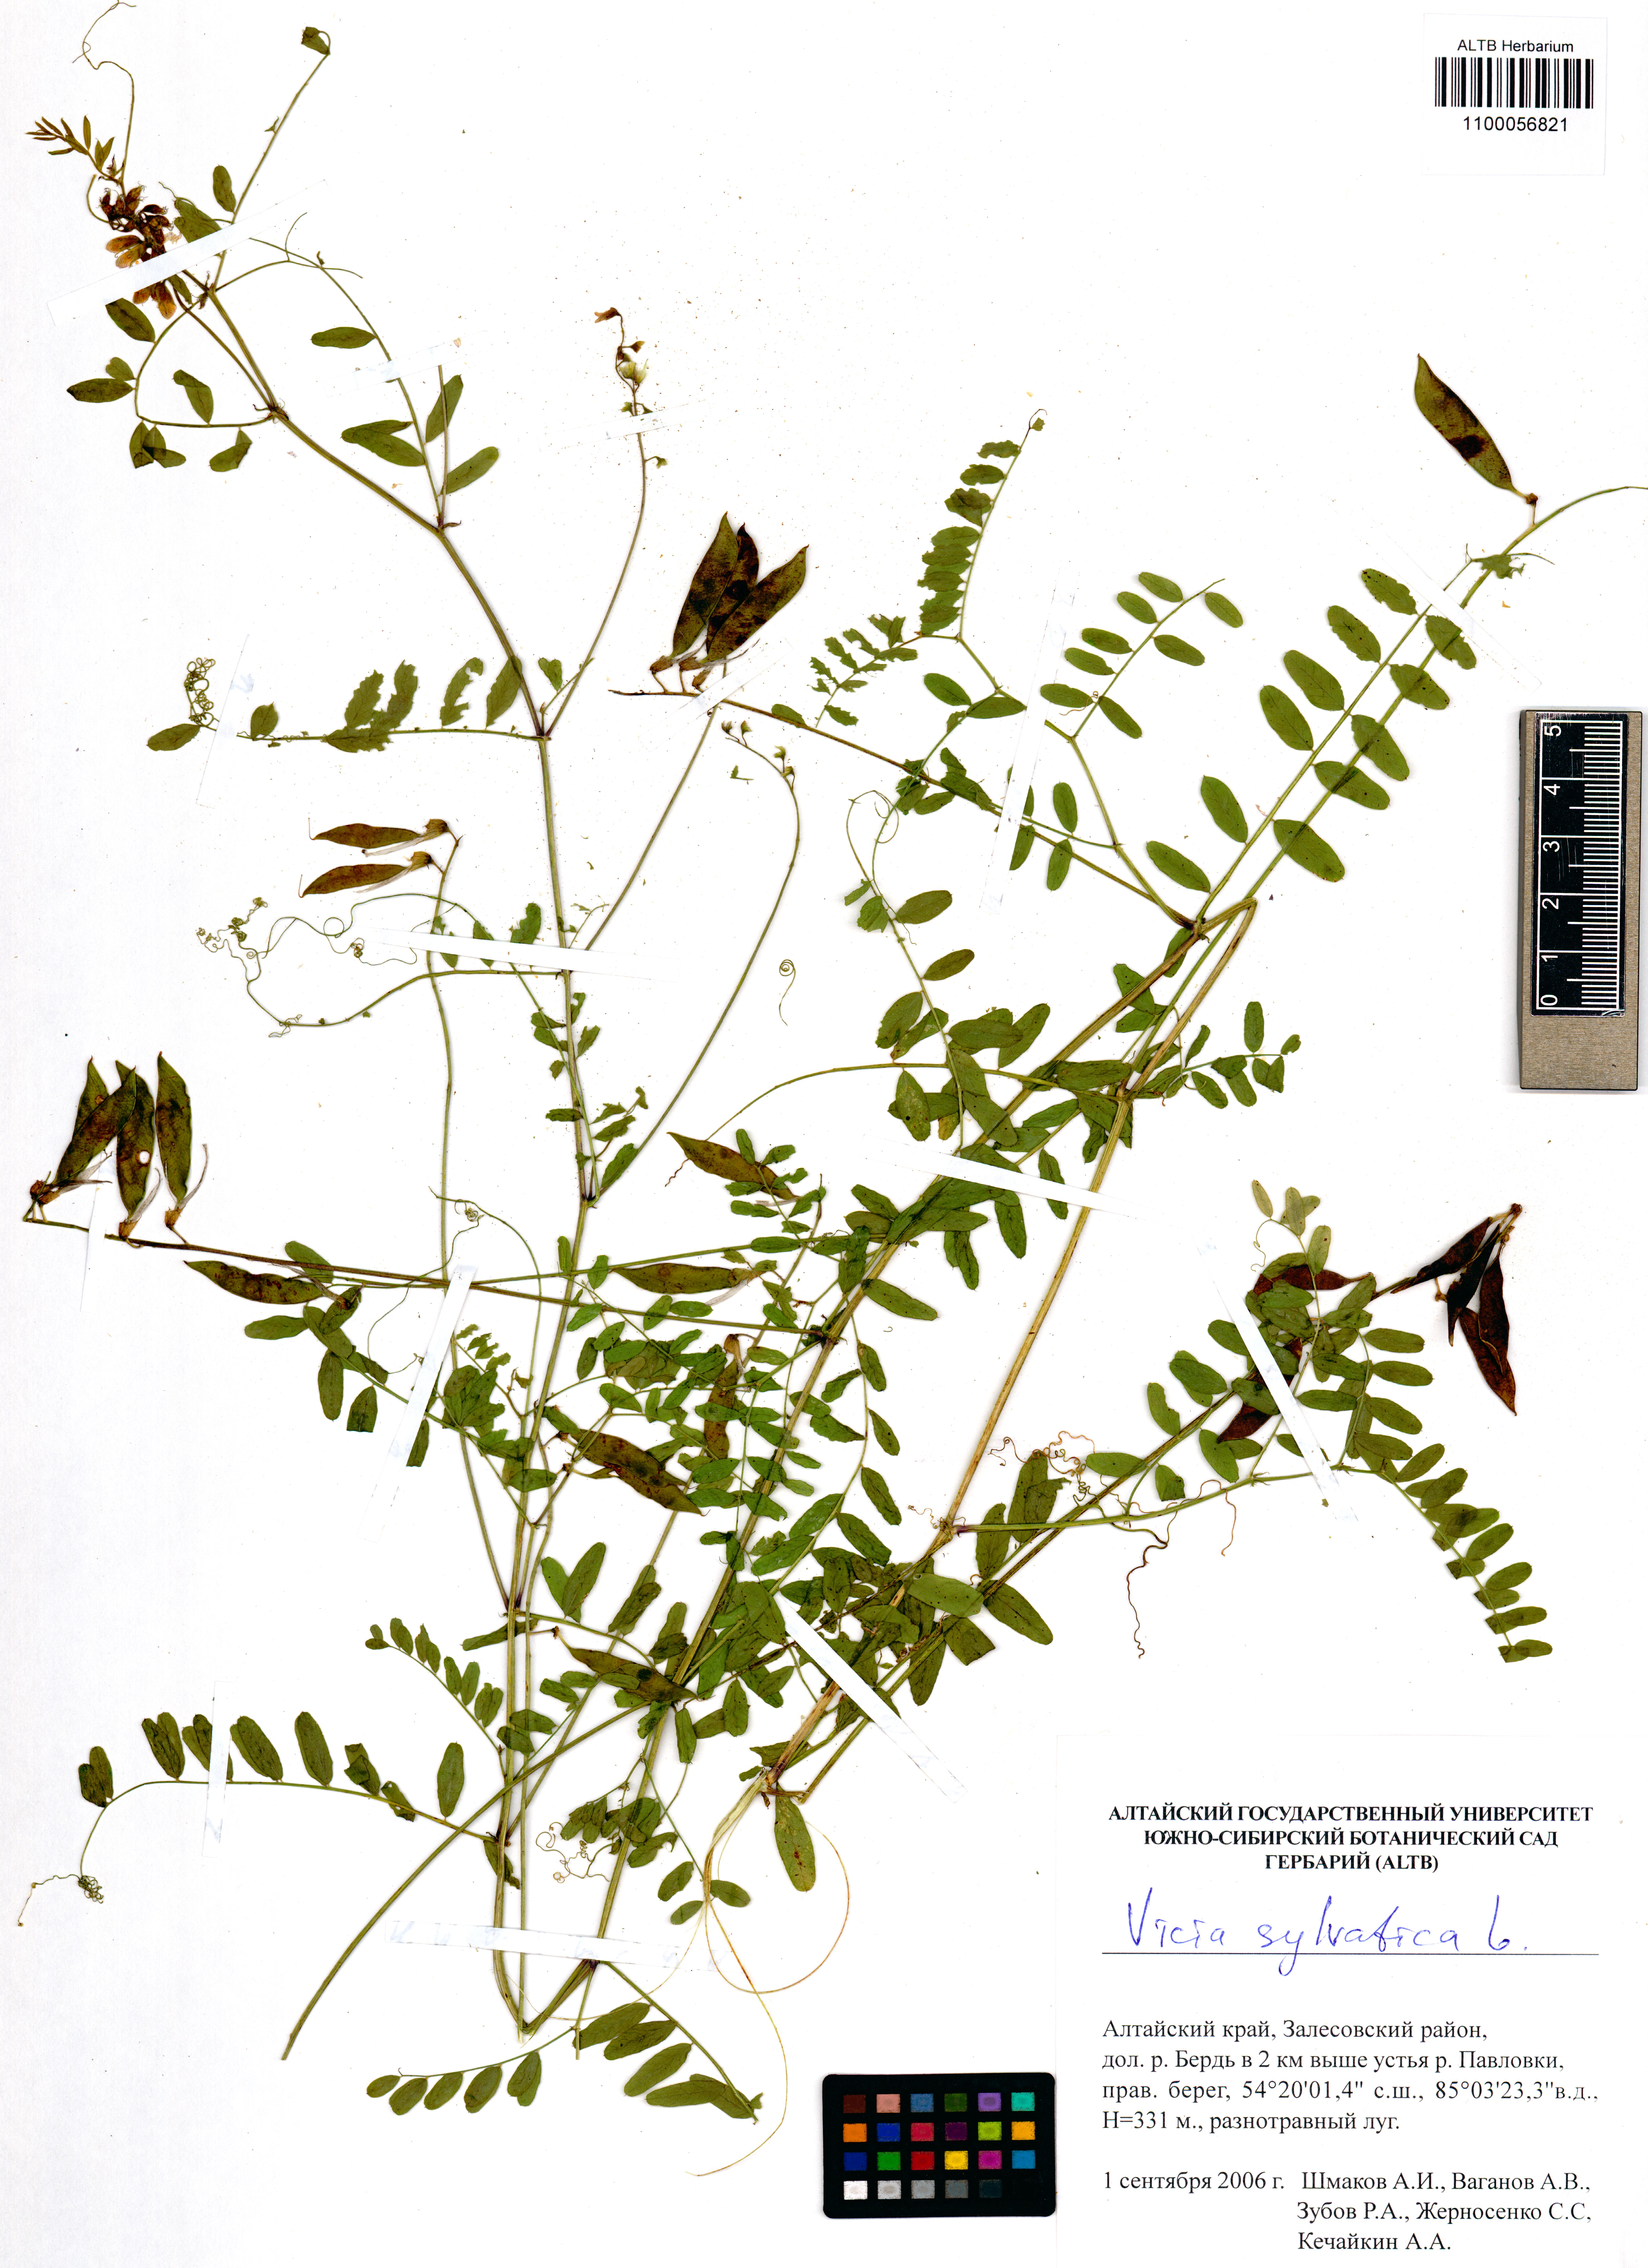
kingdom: Plantae
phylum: Tracheophyta
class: Magnoliopsida
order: Fabales
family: Fabaceae
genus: Vicia
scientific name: Vicia sylvatica
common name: Wood vetch
